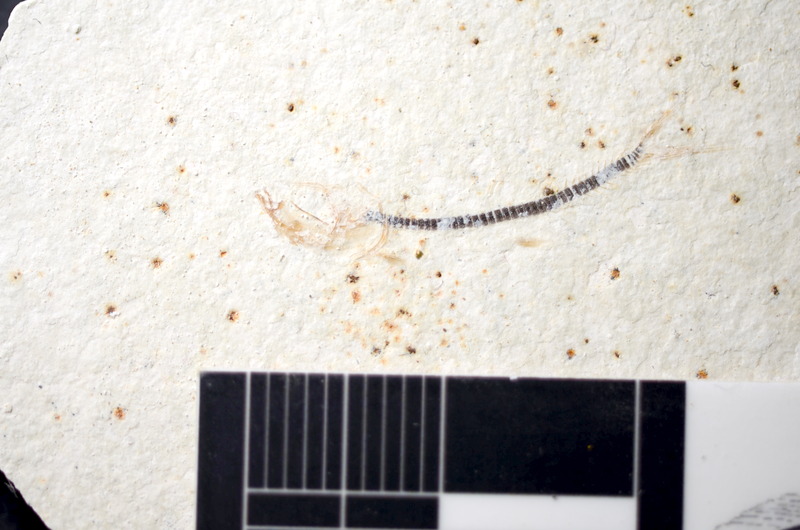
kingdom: Animalia
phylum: Chordata
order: Salmoniformes
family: Orthogonikleithridae
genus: Orthogonikleithrus
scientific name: Orthogonikleithrus hoelli
